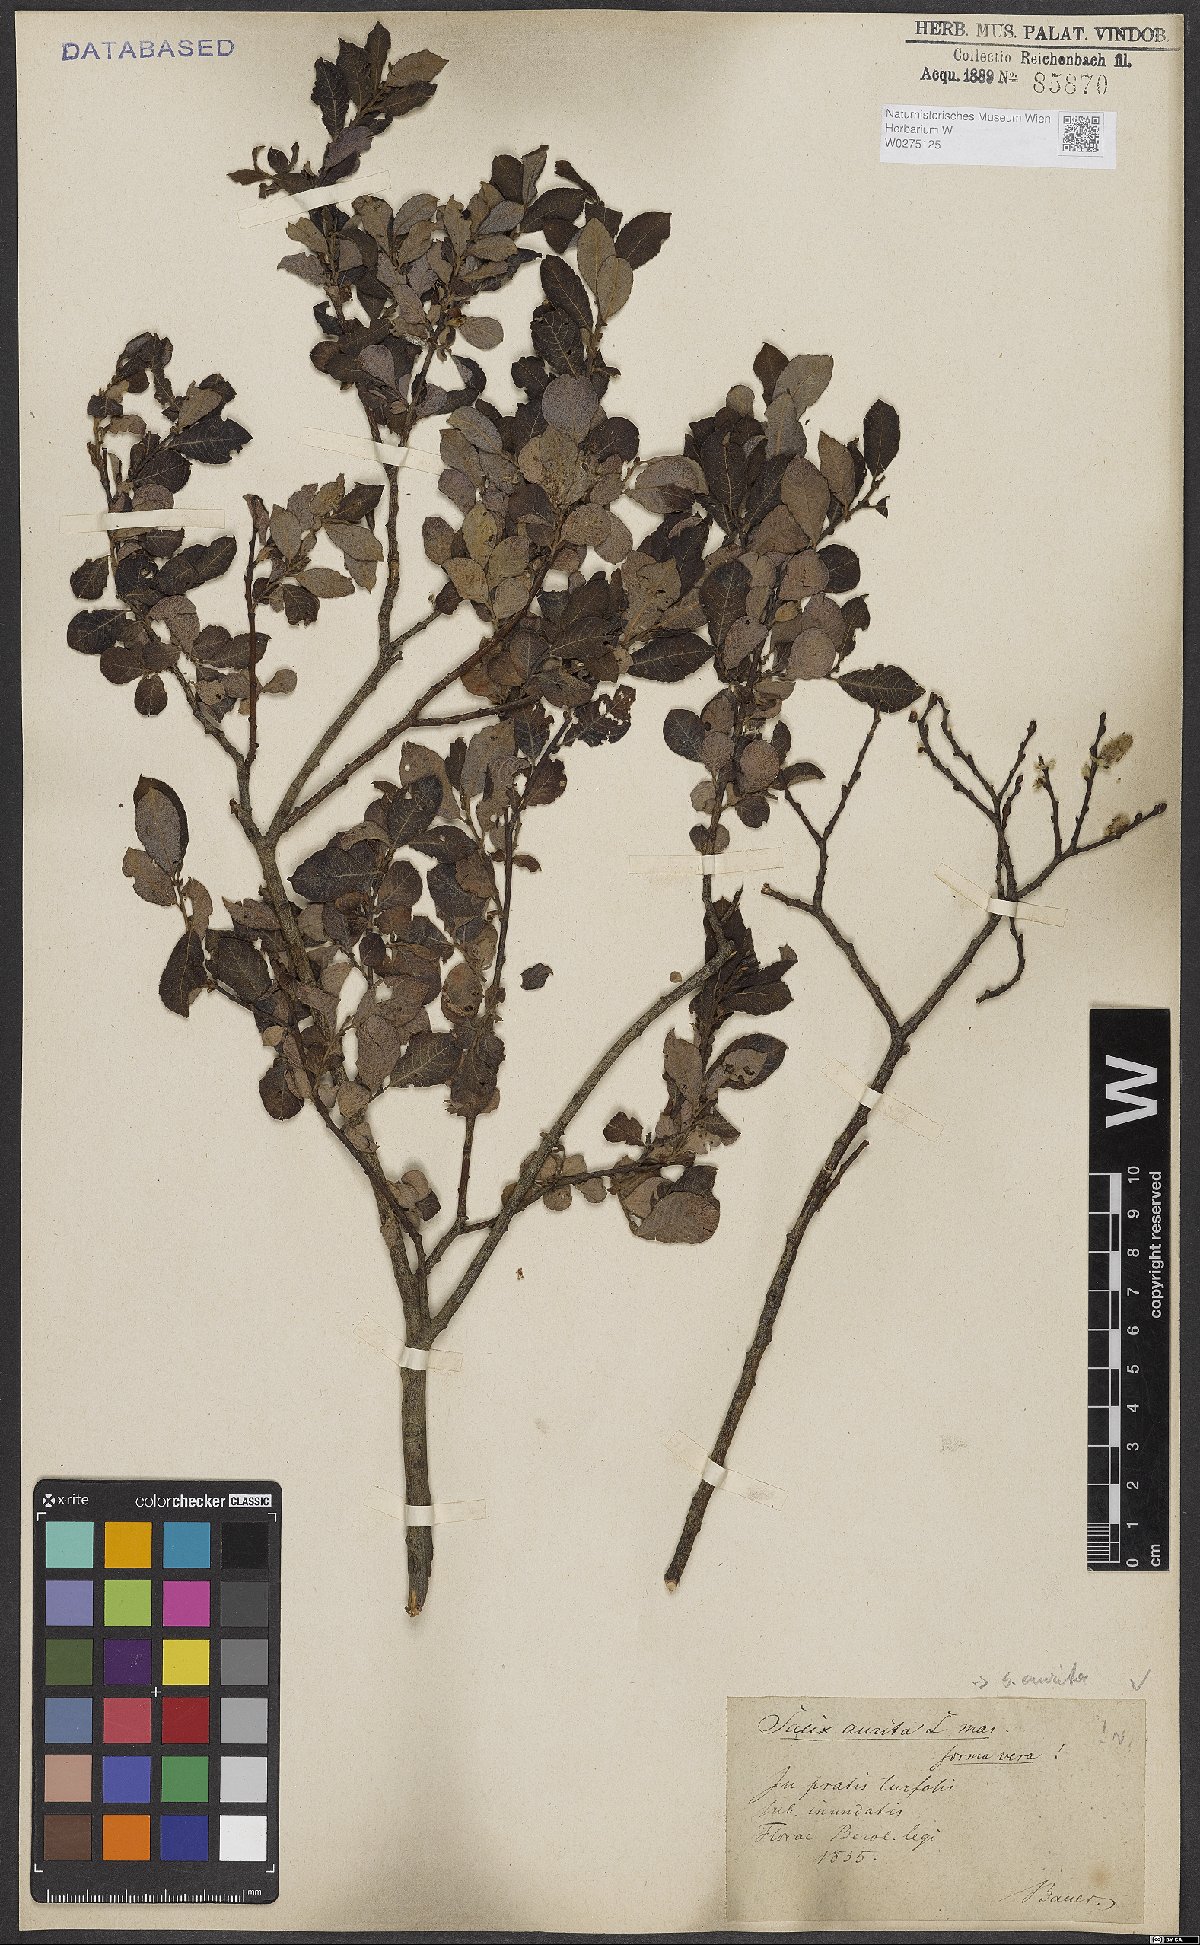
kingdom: Plantae
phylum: Tracheophyta
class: Magnoliopsida
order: Malpighiales
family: Salicaceae
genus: Salix
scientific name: Salix aurita
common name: Eared willow
